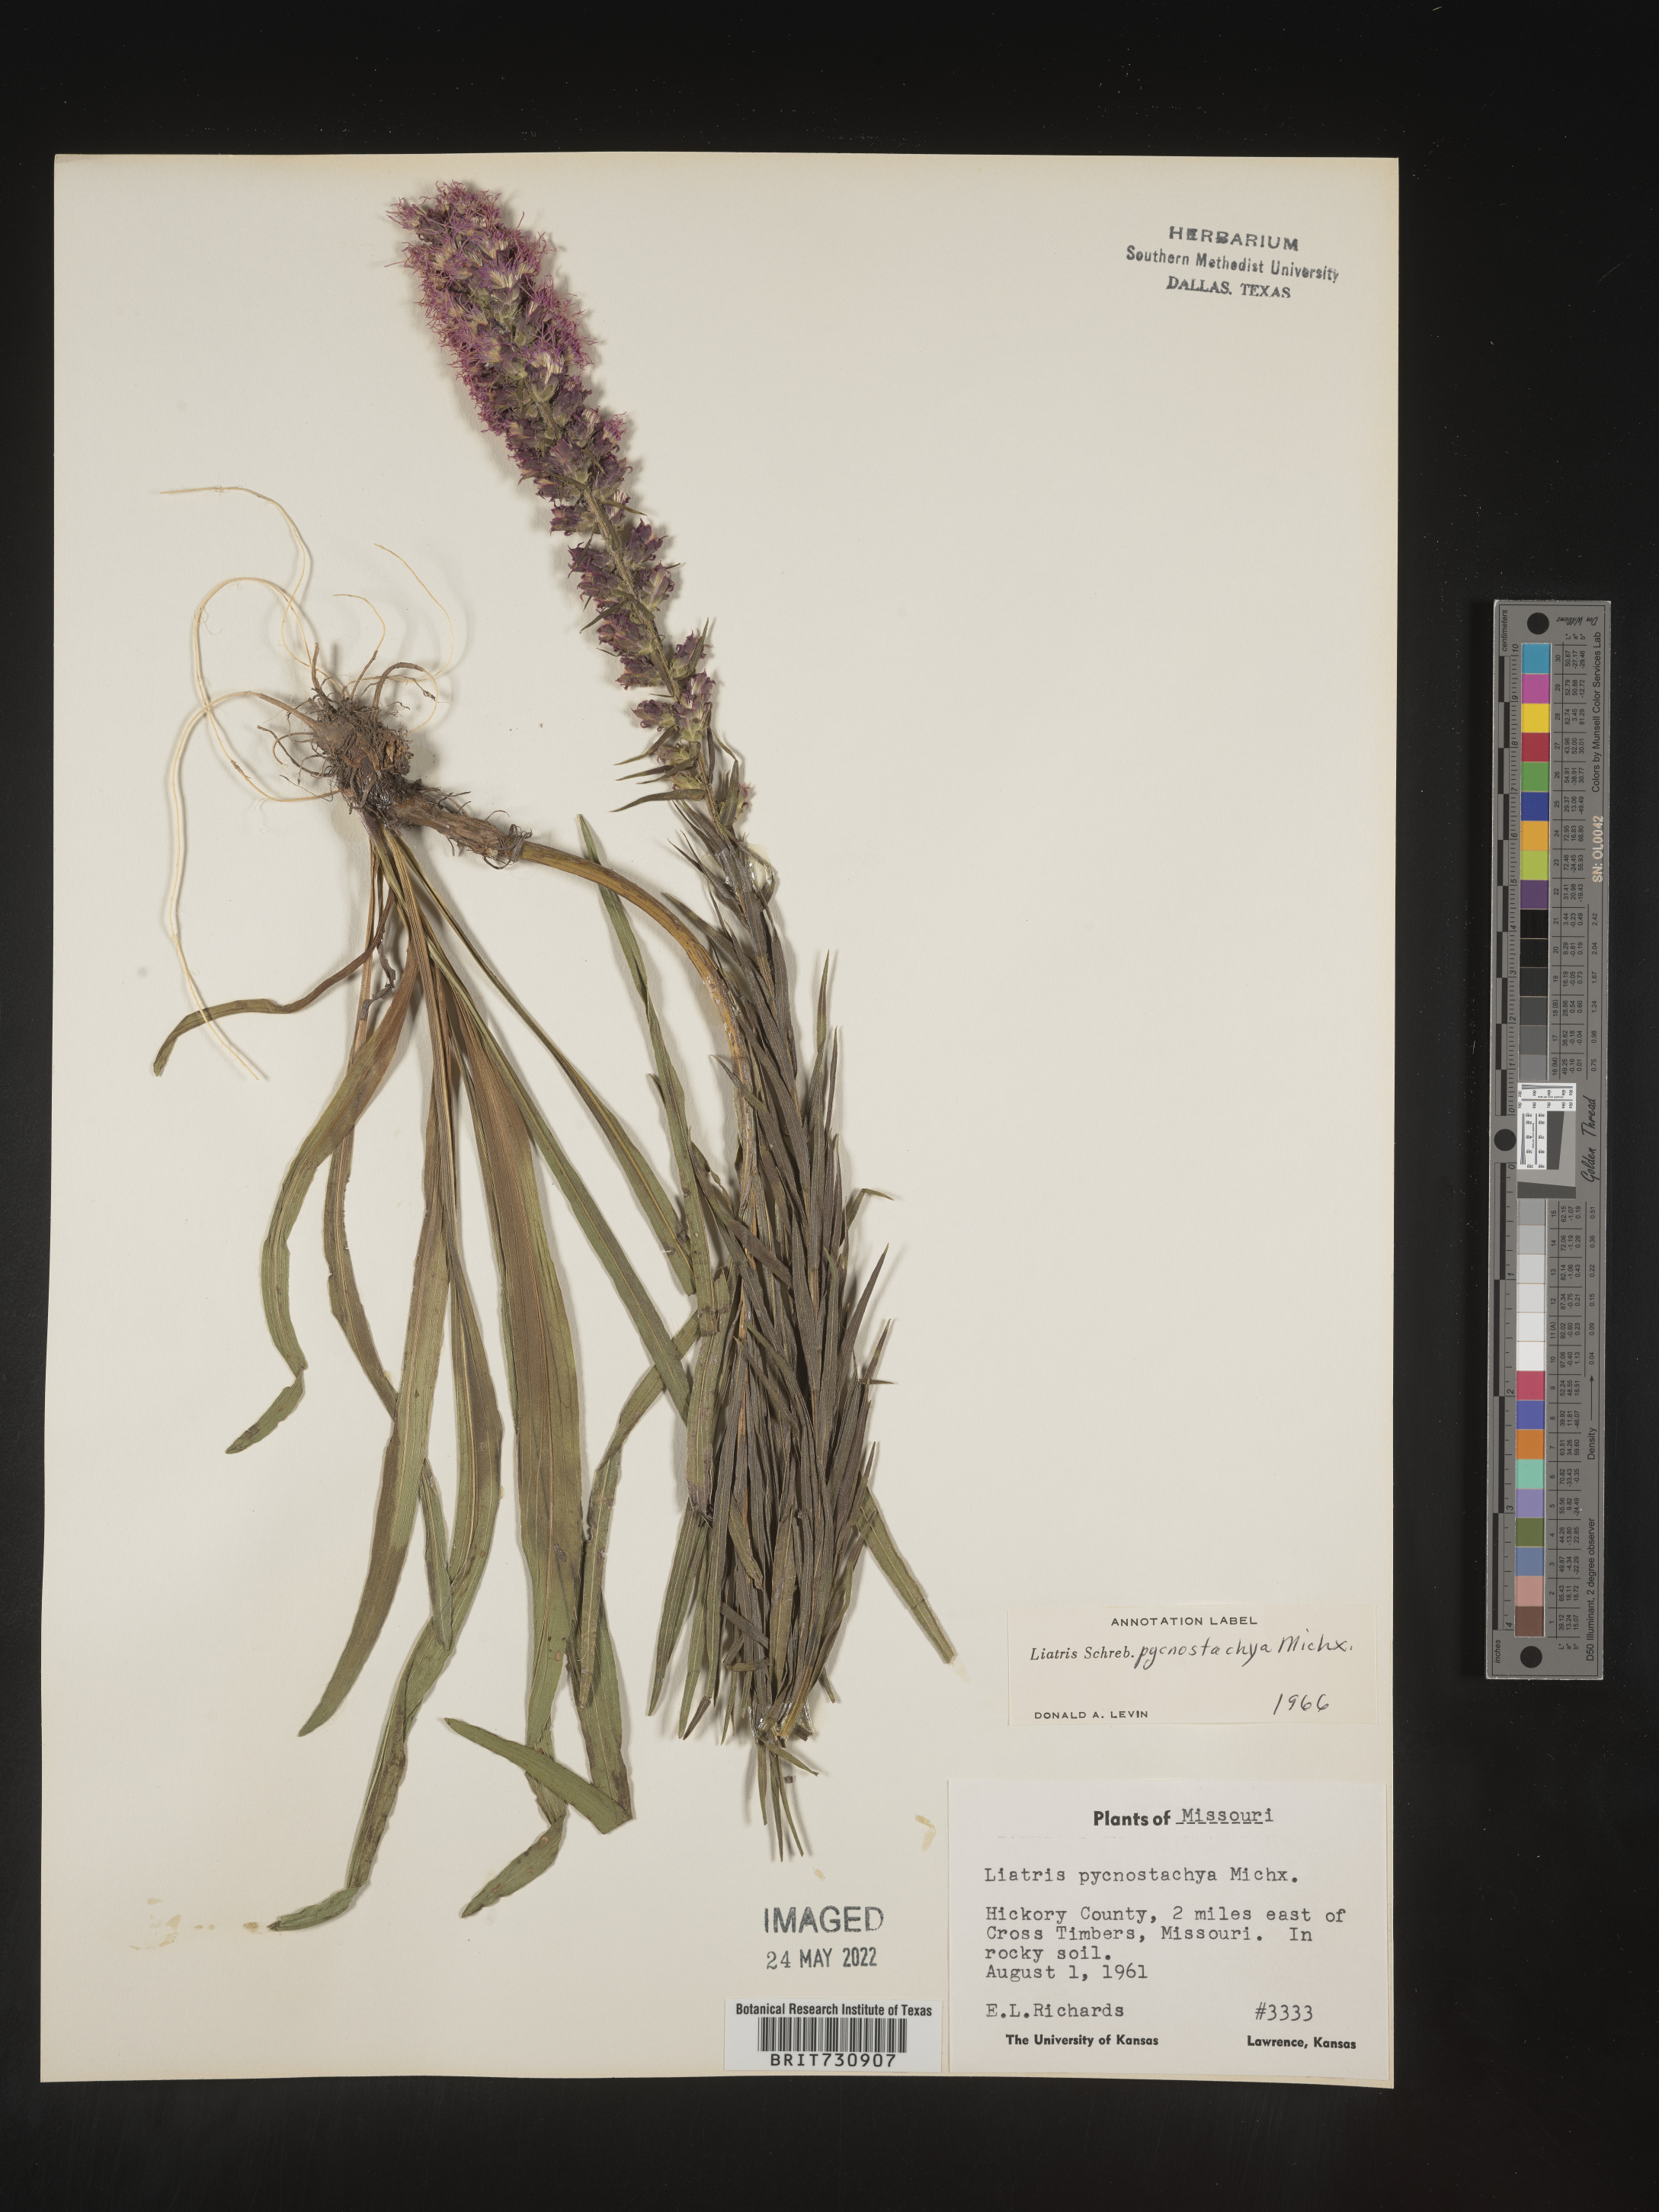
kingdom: Plantae
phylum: Tracheophyta
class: Magnoliopsida
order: Asterales
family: Asteraceae
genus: Liatris
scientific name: Liatris pycnostachya
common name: Cattail gayfeather
